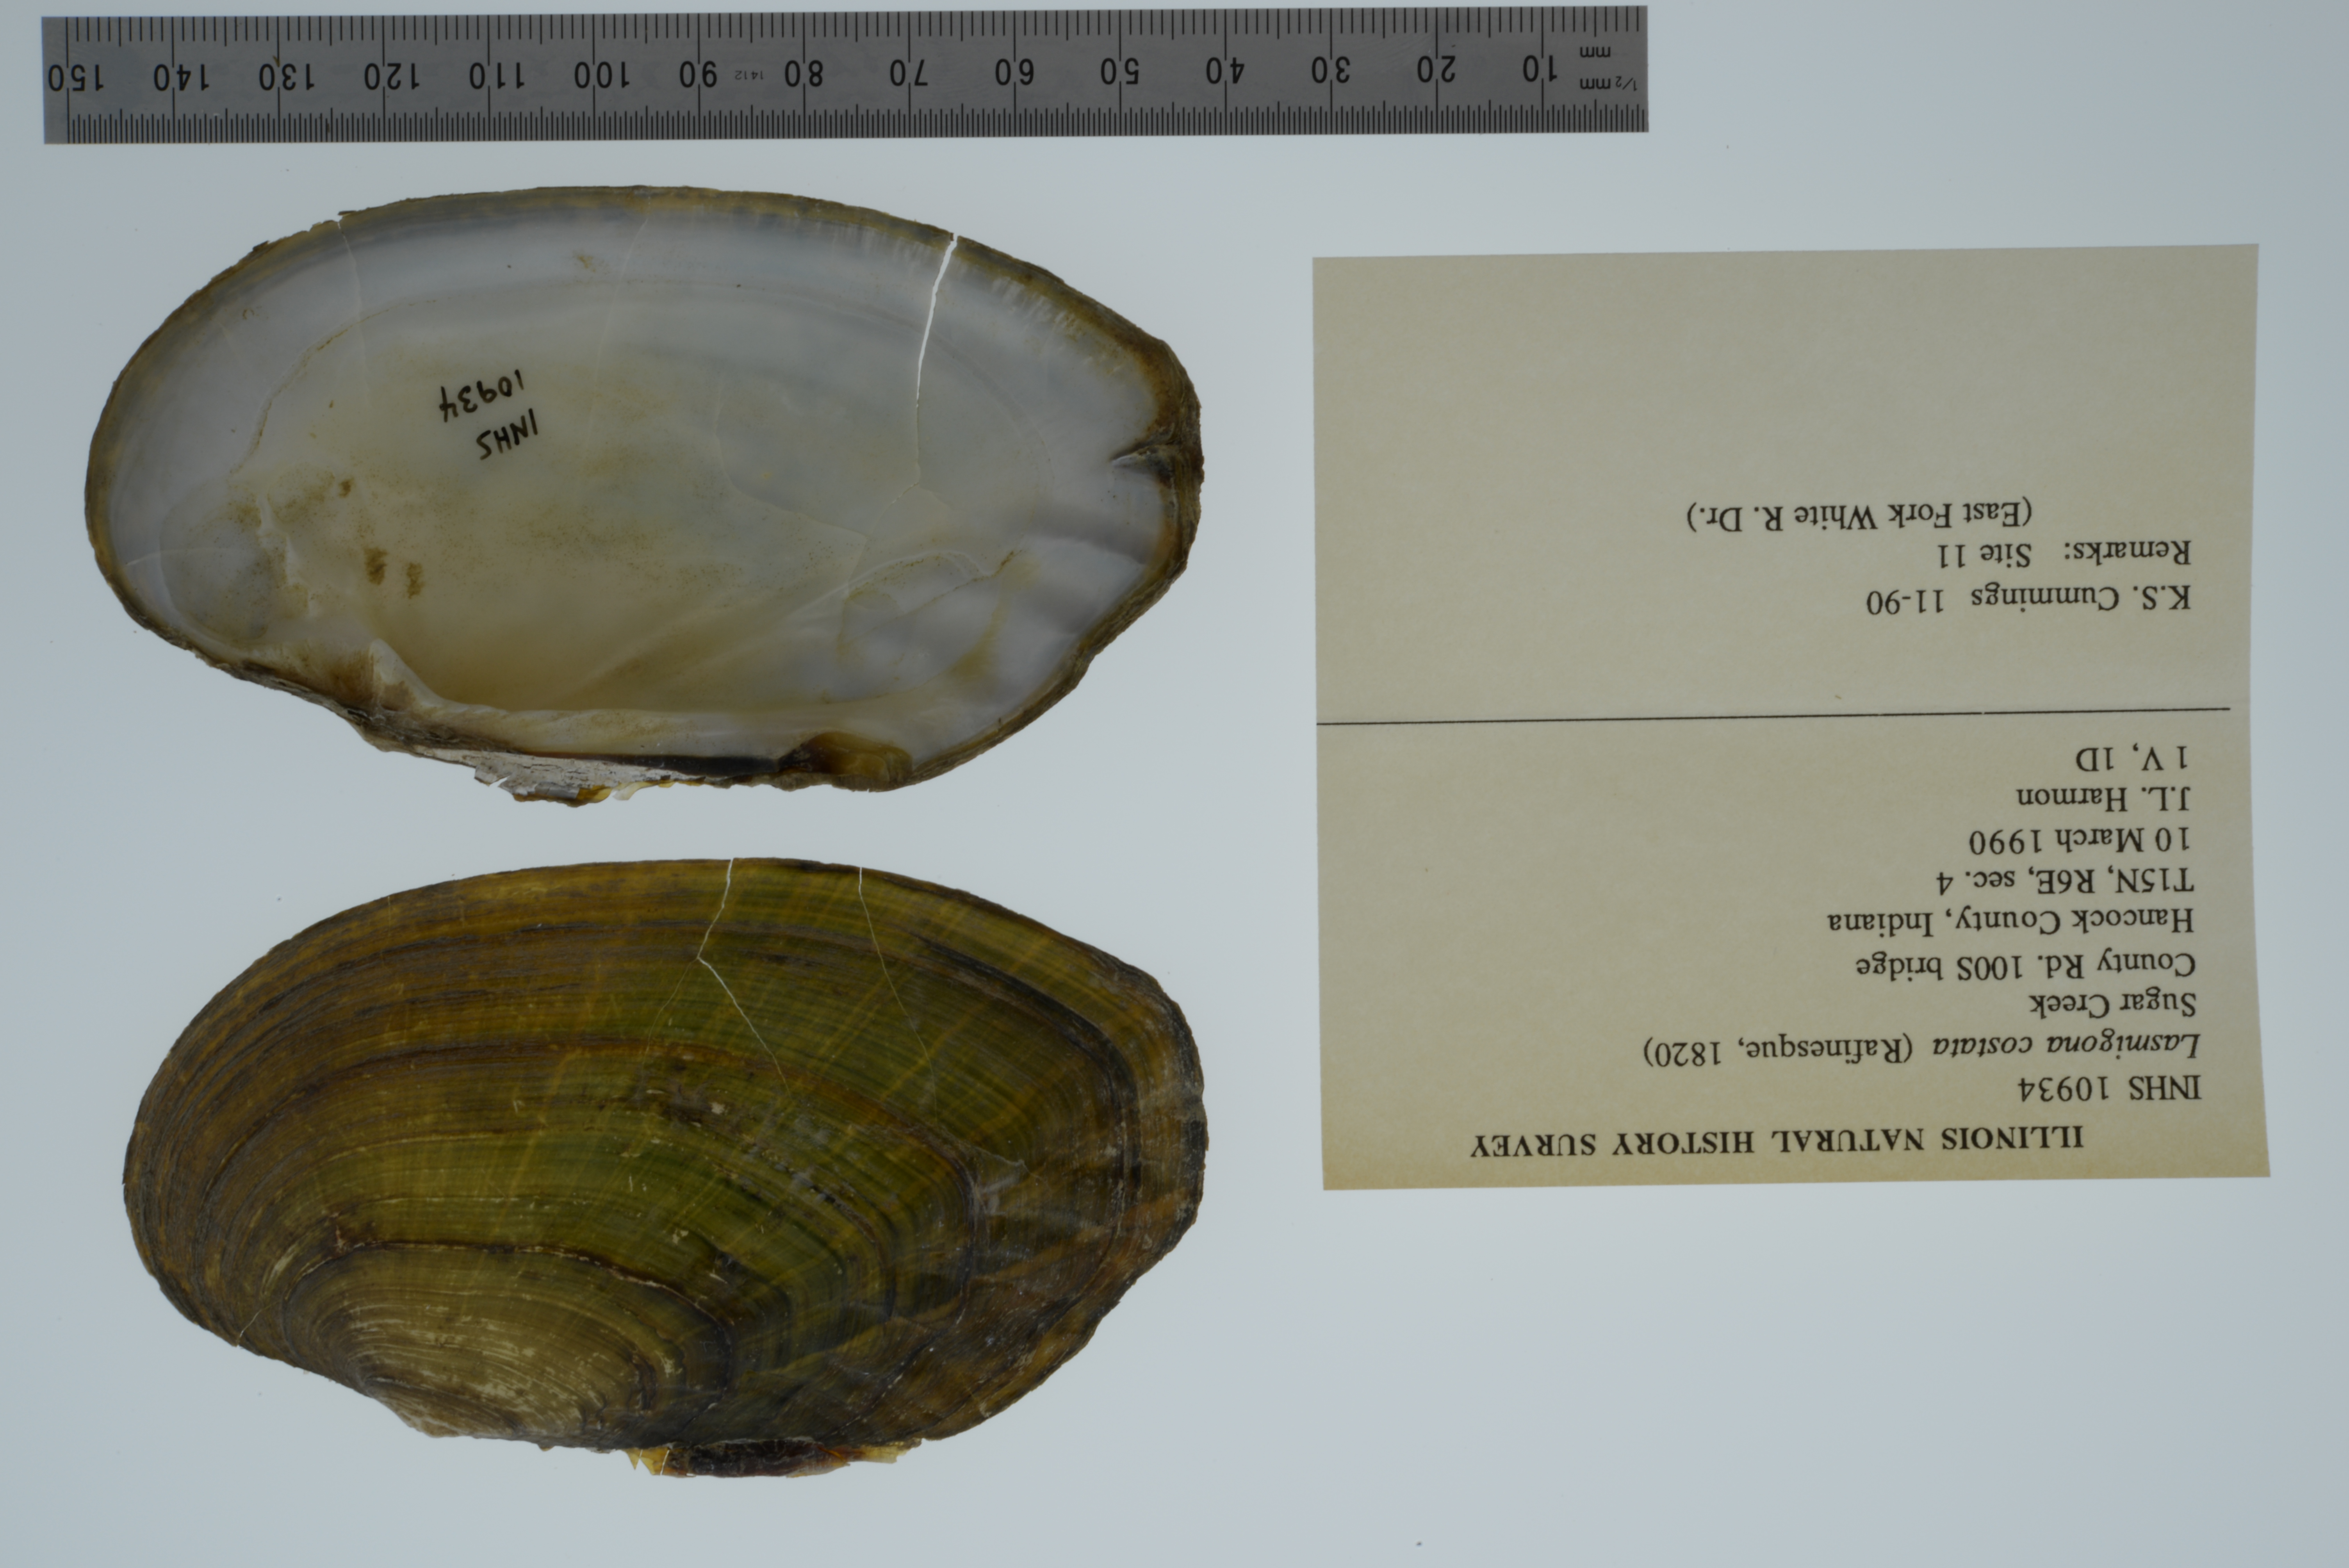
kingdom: Animalia
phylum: Mollusca
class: Bivalvia
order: Unionida
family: Unionidae
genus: Lasmigona
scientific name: Lasmigona costata
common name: Flutedshell
